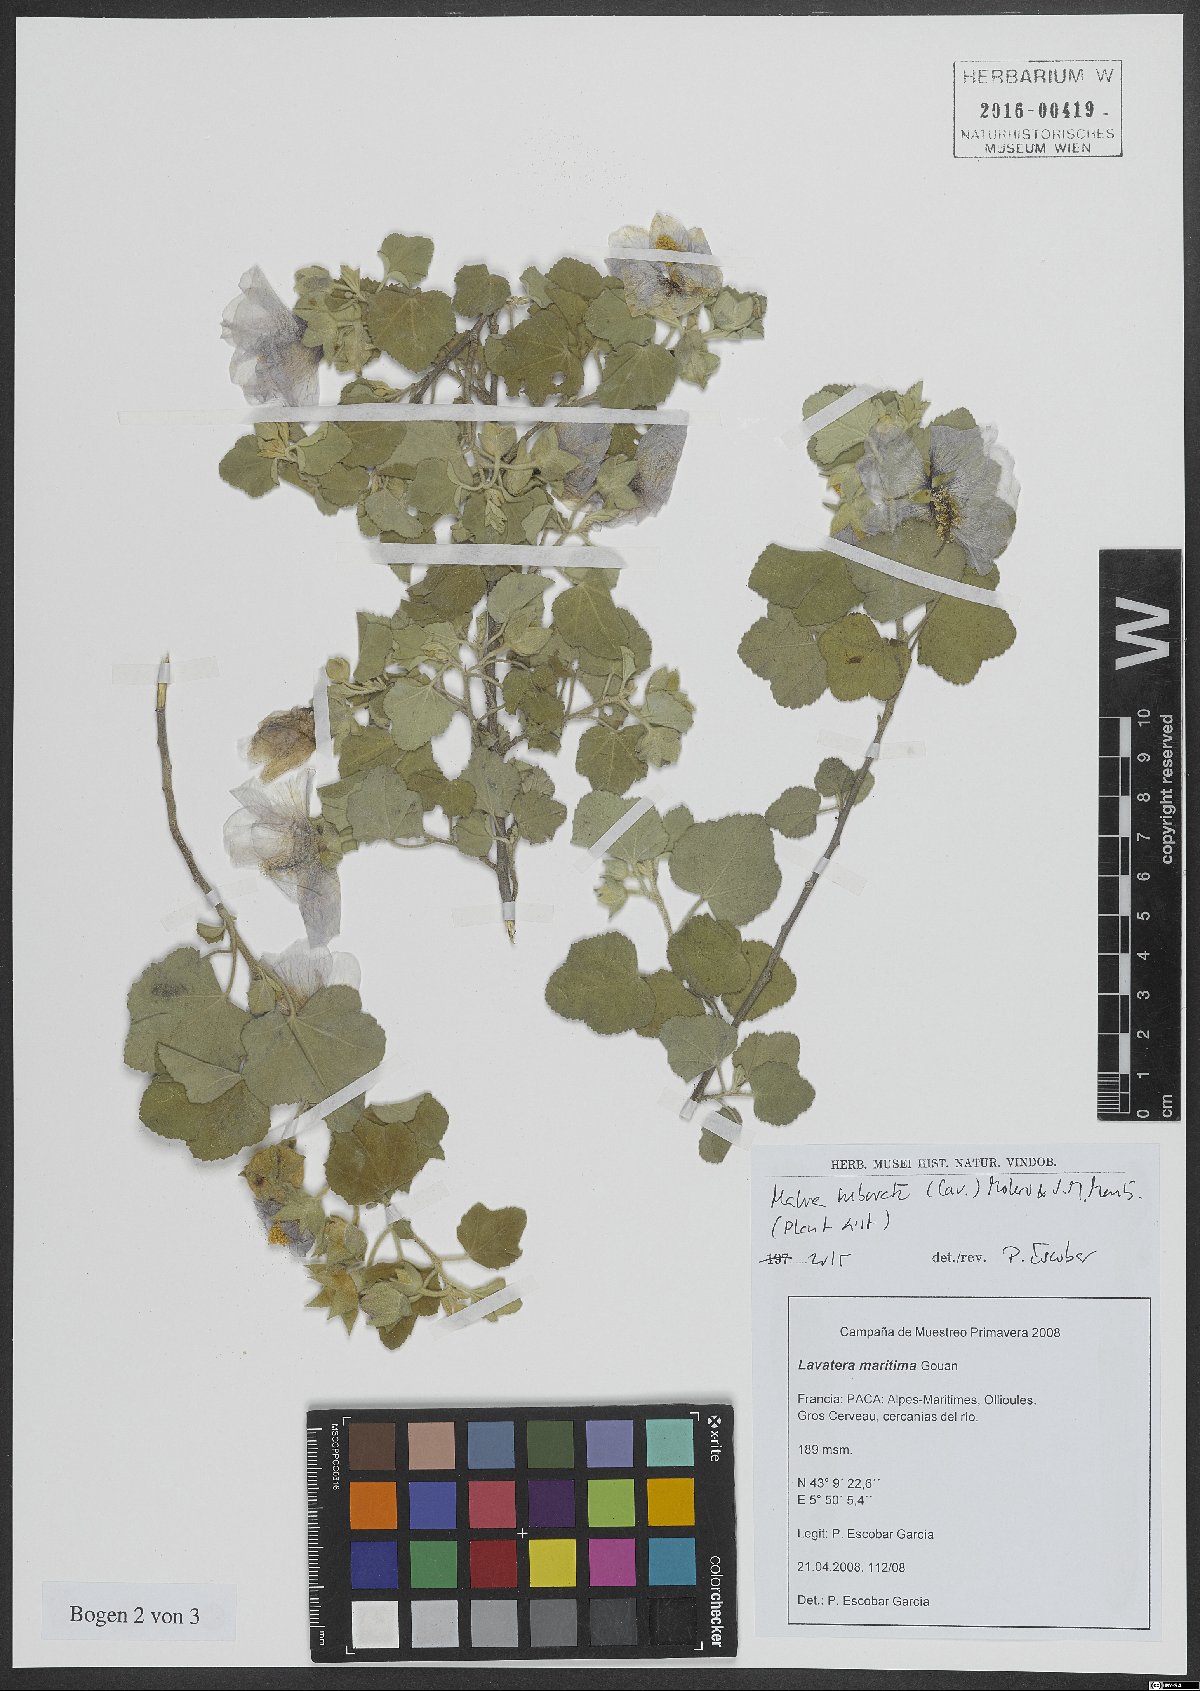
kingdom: Plantae
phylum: Tracheophyta
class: Magnoliopsida
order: Malvales
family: Malvaceae
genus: Malva
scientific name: Malva subovata
